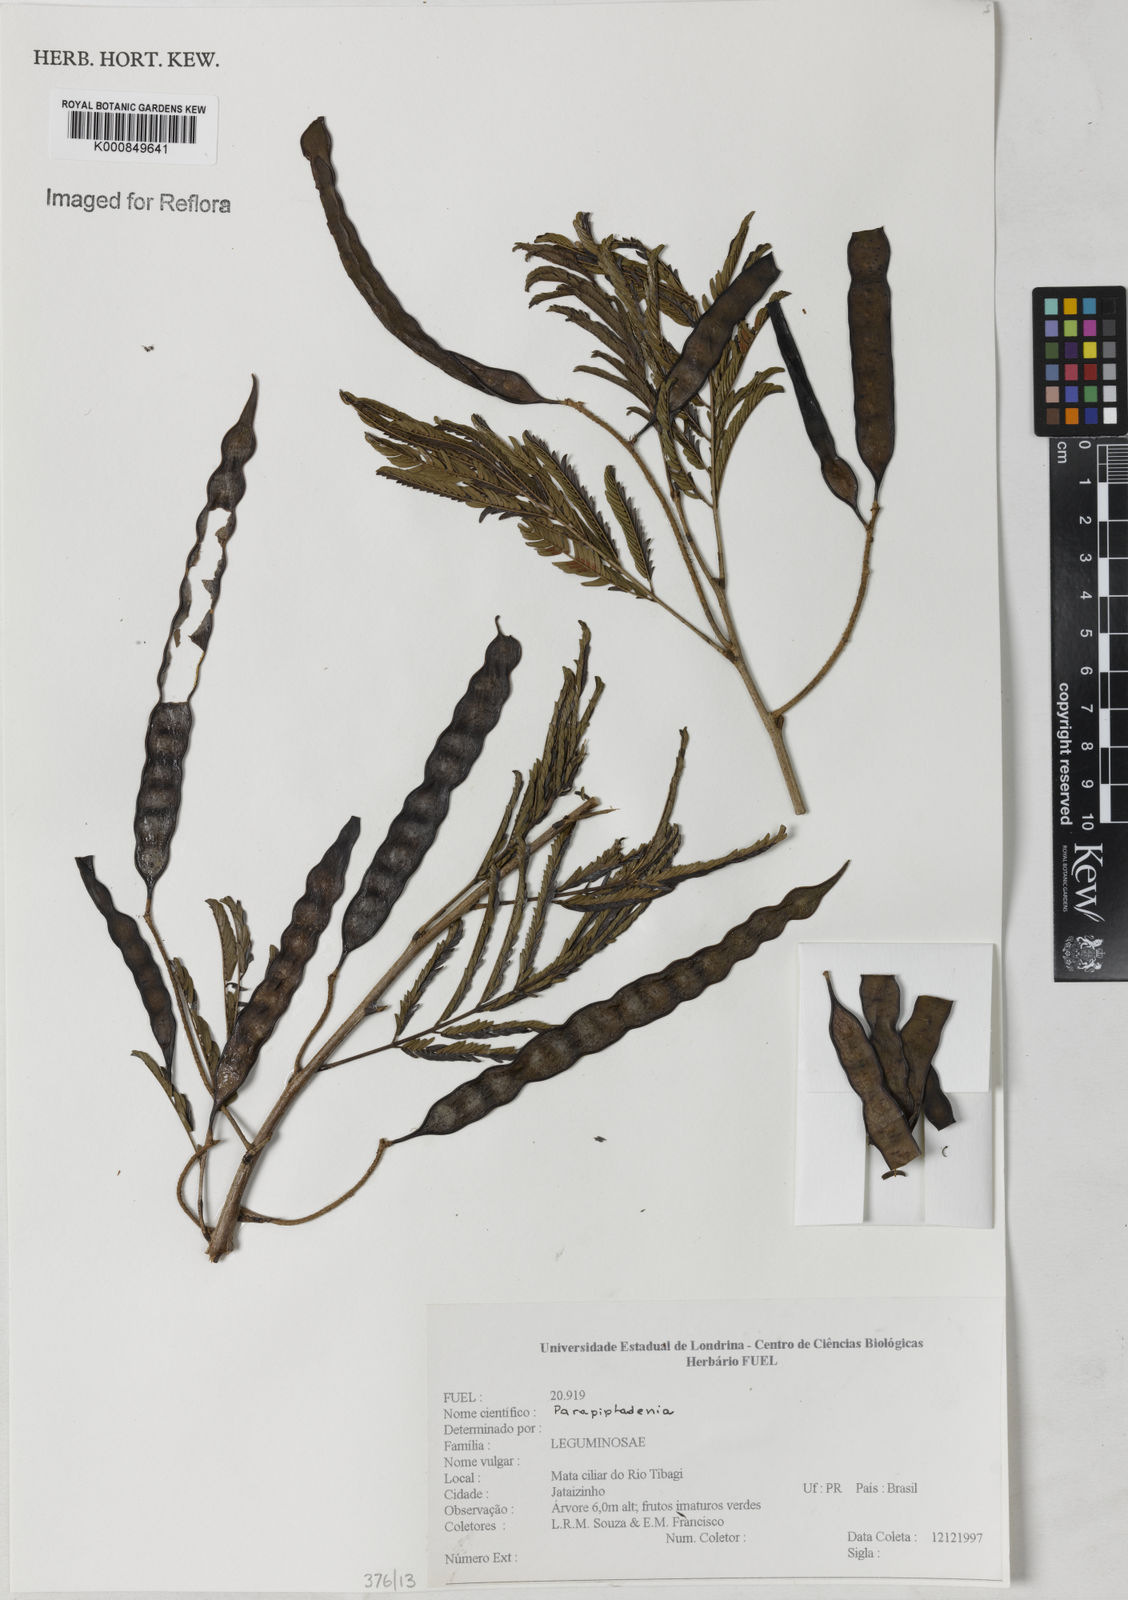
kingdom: Plantae
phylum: Tracheophyta
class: Magnoliopsida
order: Fabales
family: Fabaceae
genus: Parapiptadenia
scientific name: Parapiptadenia
